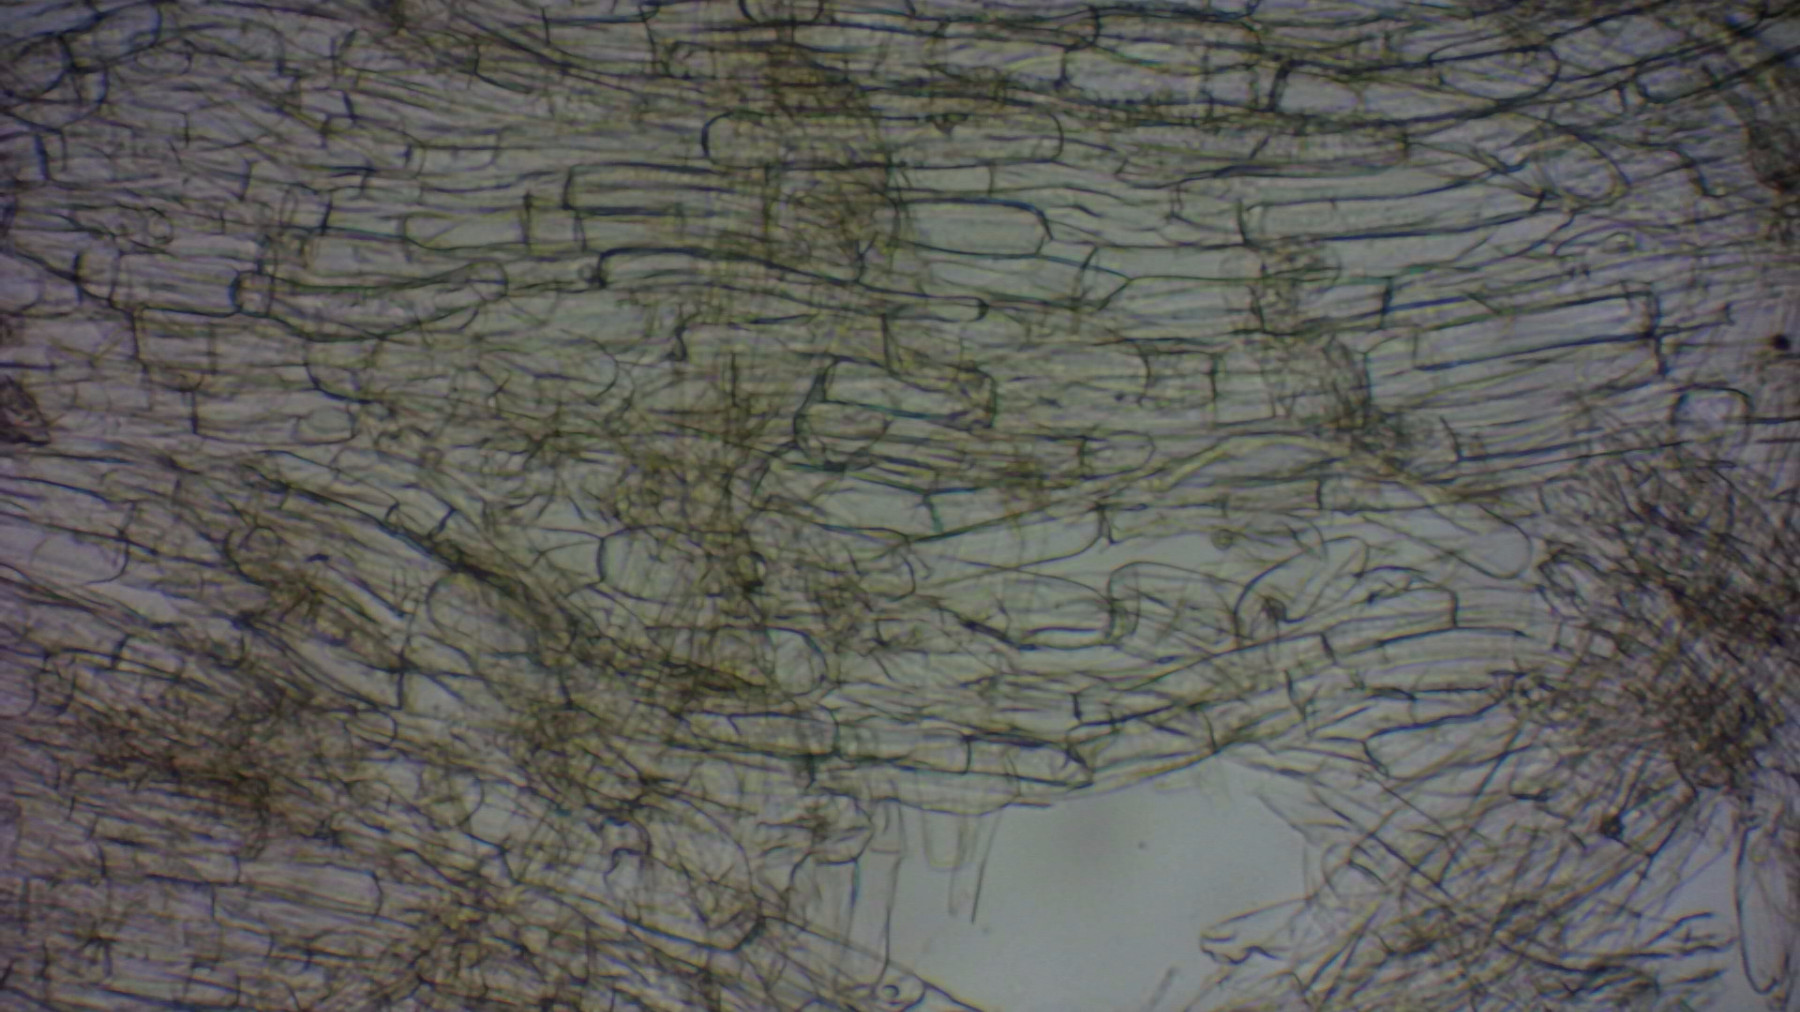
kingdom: Fungi
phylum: Basidiomycota
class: Agaricomycetes
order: Agaricales
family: Entolomataceae
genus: Entoloma
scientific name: Entoloma
